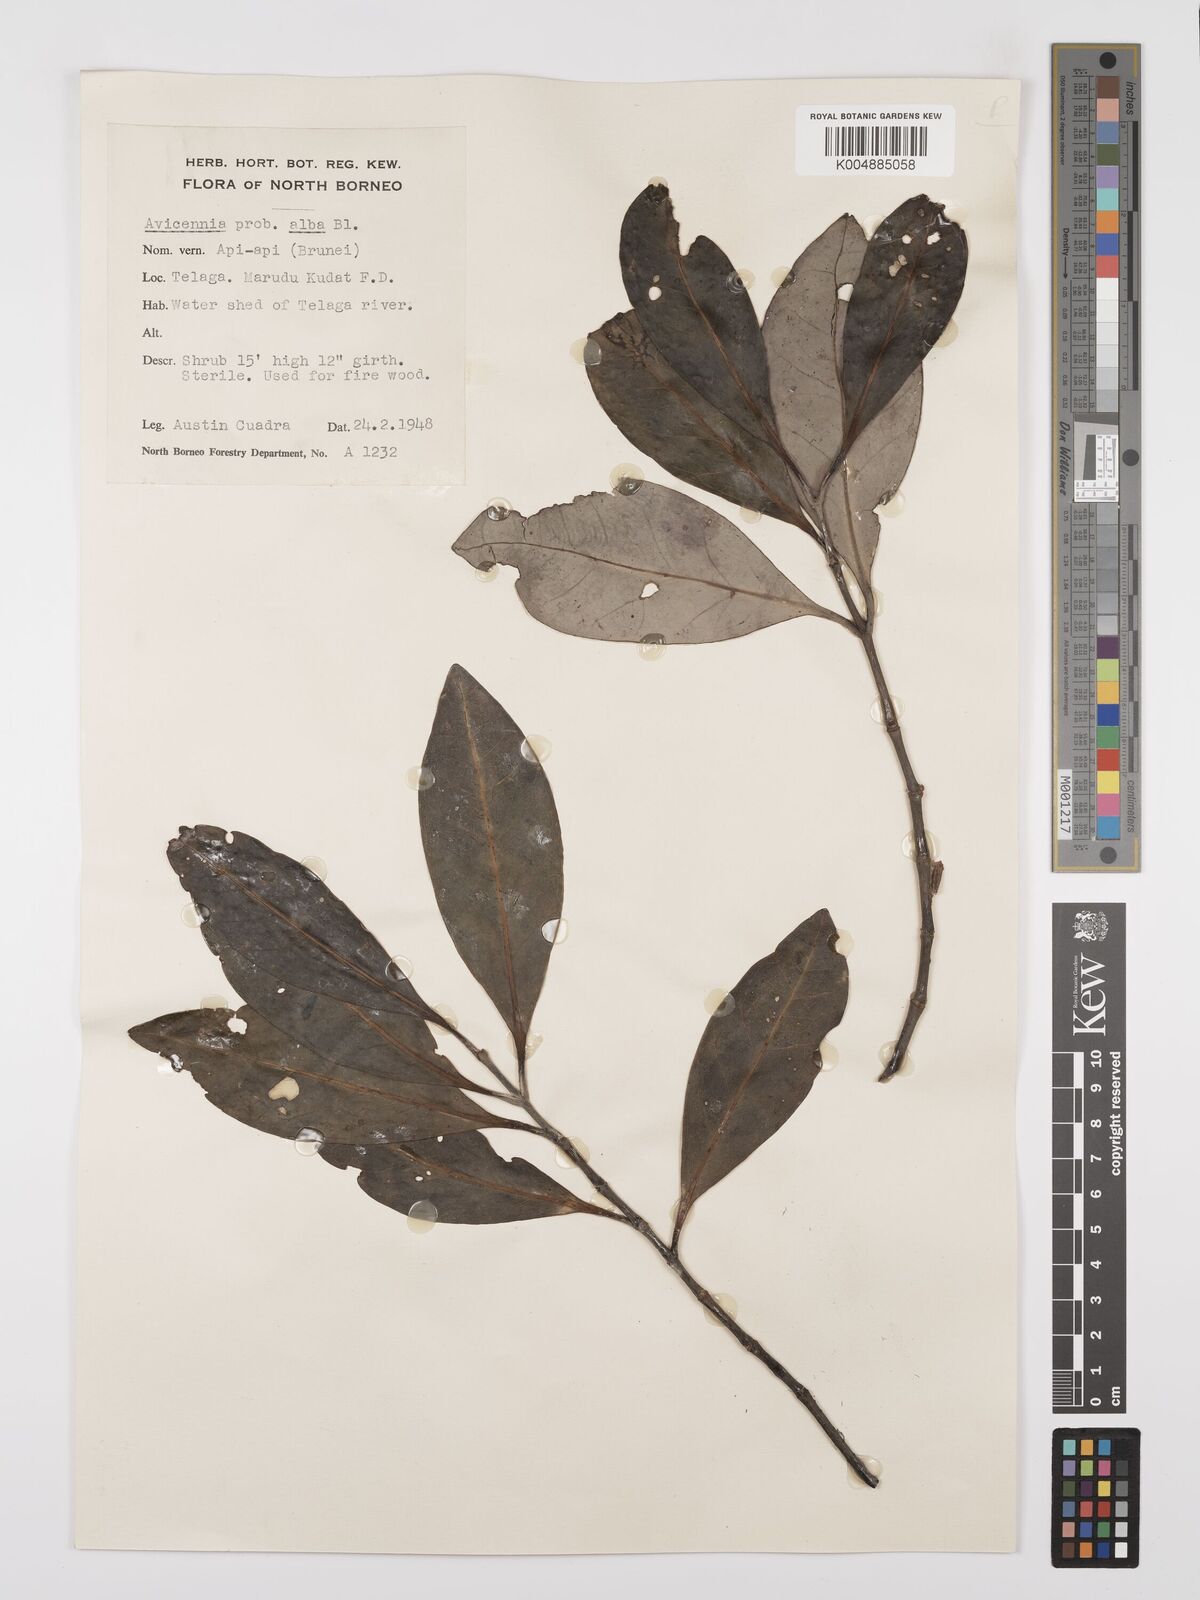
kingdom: Plantae
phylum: Tracheophyta
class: Magnoliopsida
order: Lamiales
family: Acanthaceae
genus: Avicennia
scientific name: Avicennia alba
